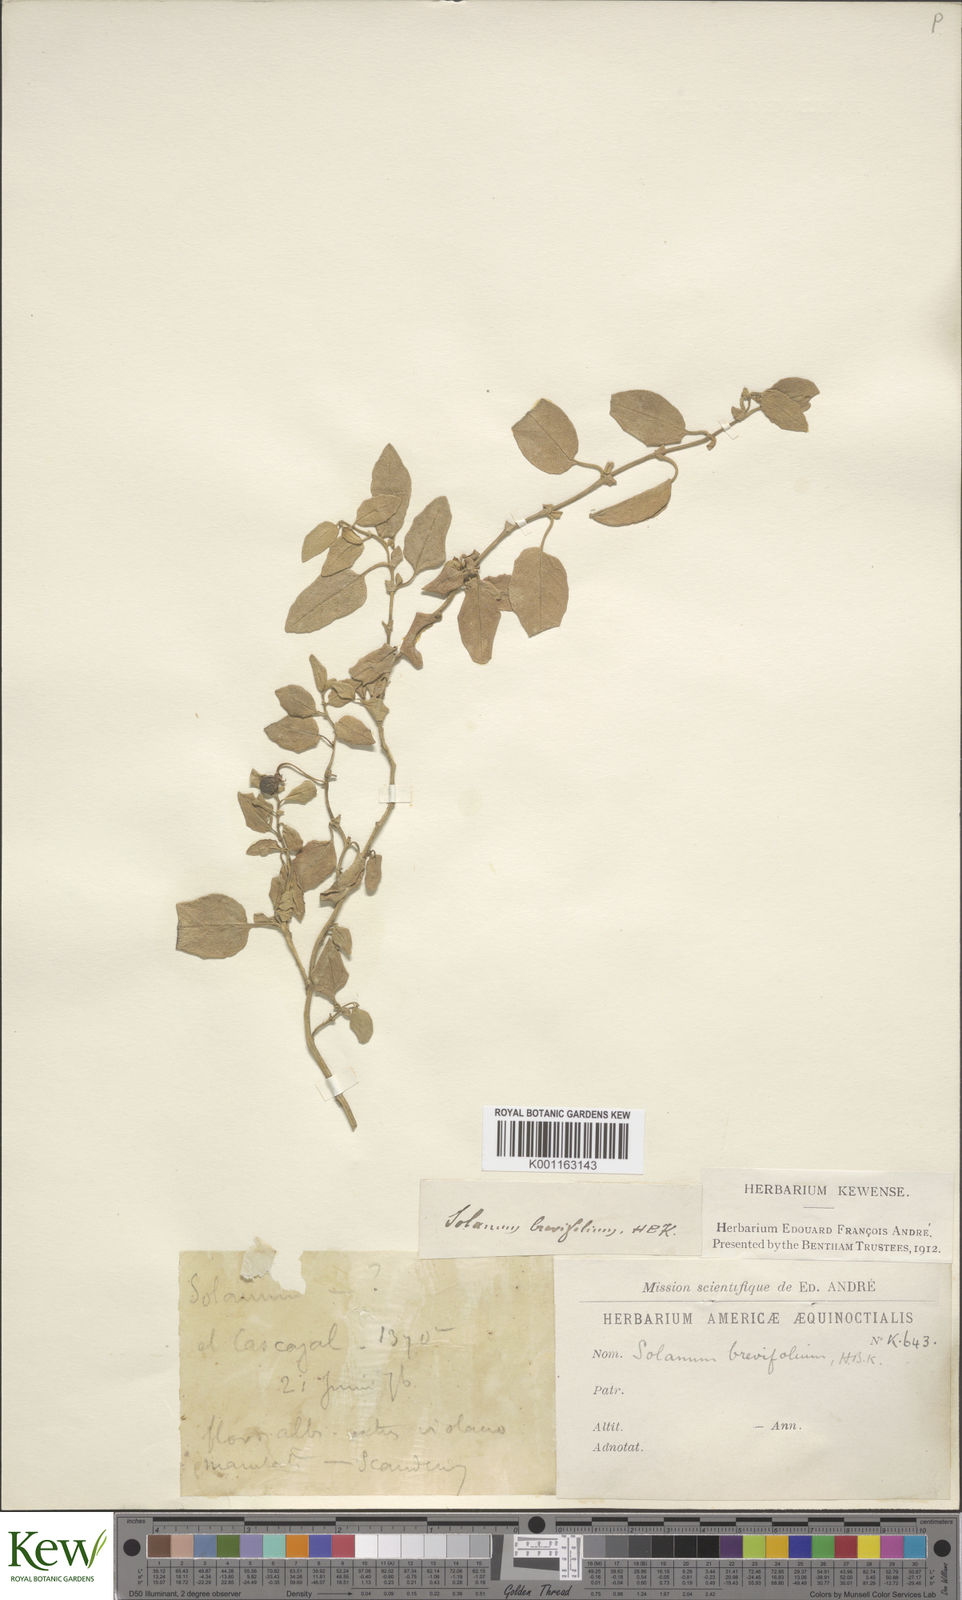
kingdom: Plantae
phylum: Tracheophyta
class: Magnoliopsida
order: Solanales
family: Solanaceae
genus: Solanum
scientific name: Solanum brevifolium
